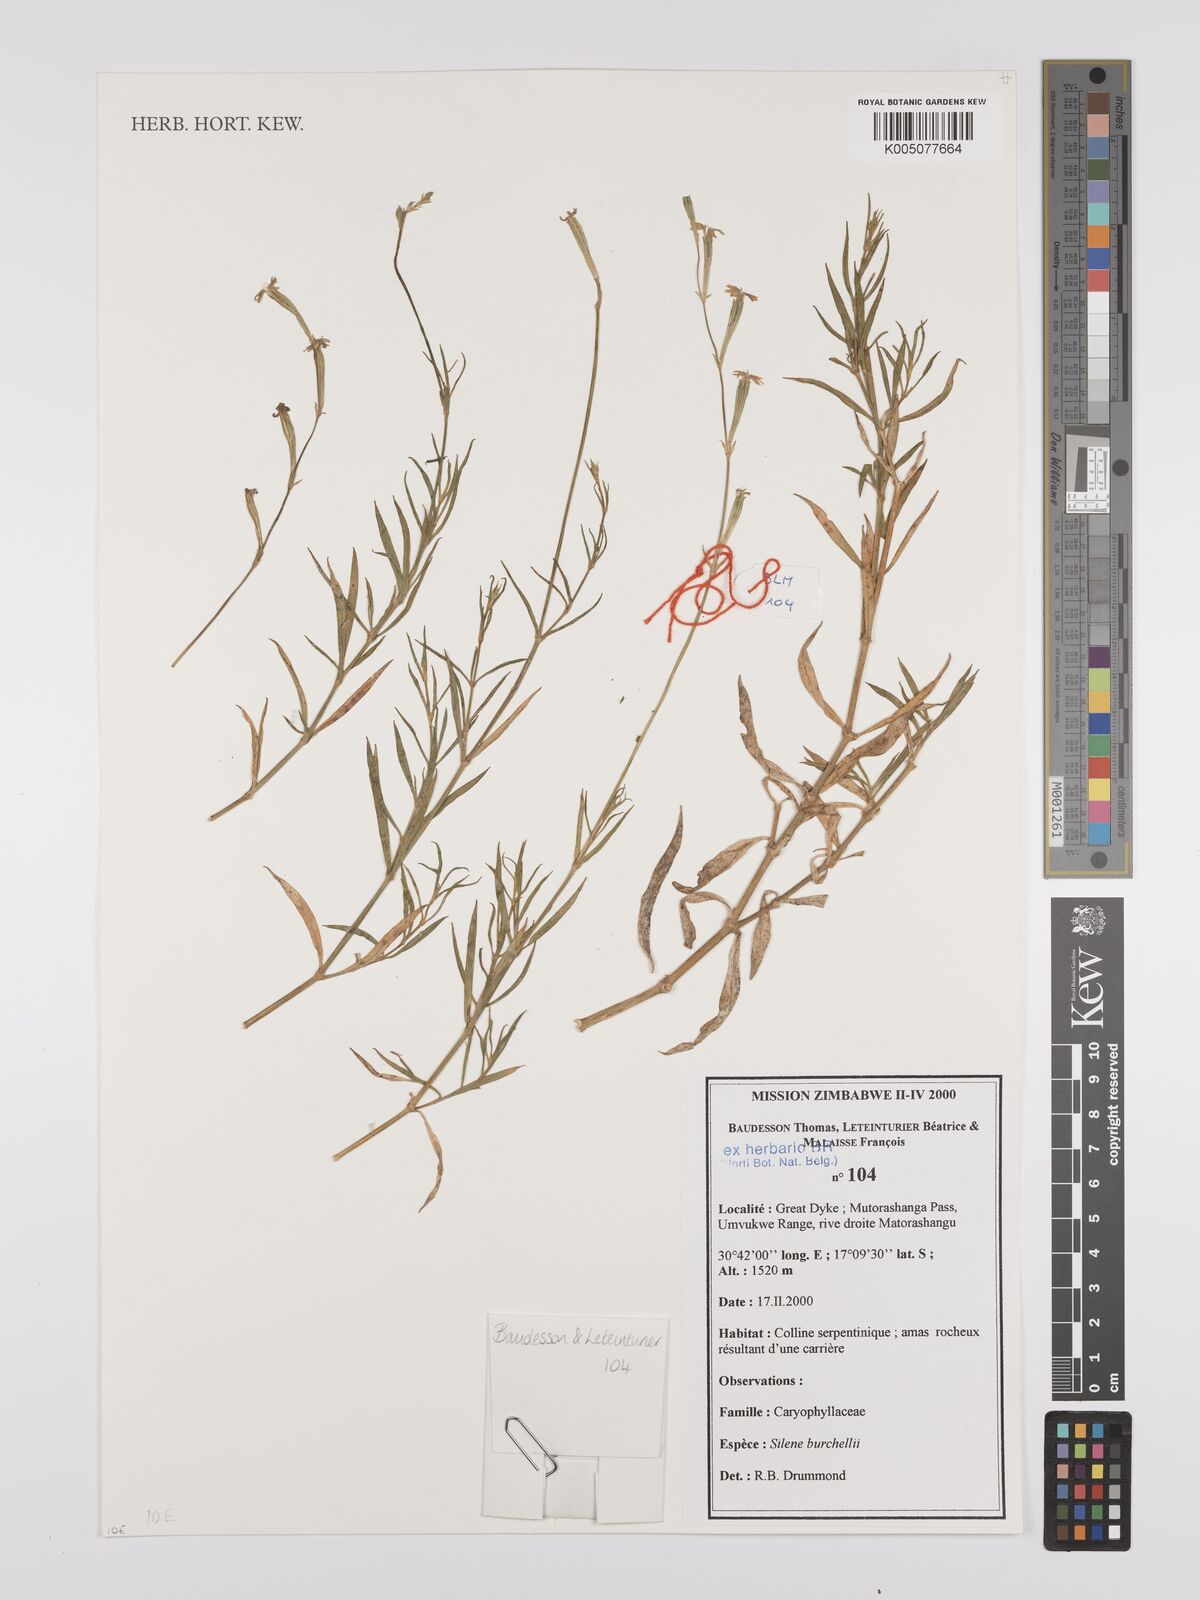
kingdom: Plantae
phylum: Tracheophyta
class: Magnoliopsida
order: Caryophyllales
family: Caryophyllaceae
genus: Silene
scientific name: Silene burchellii
